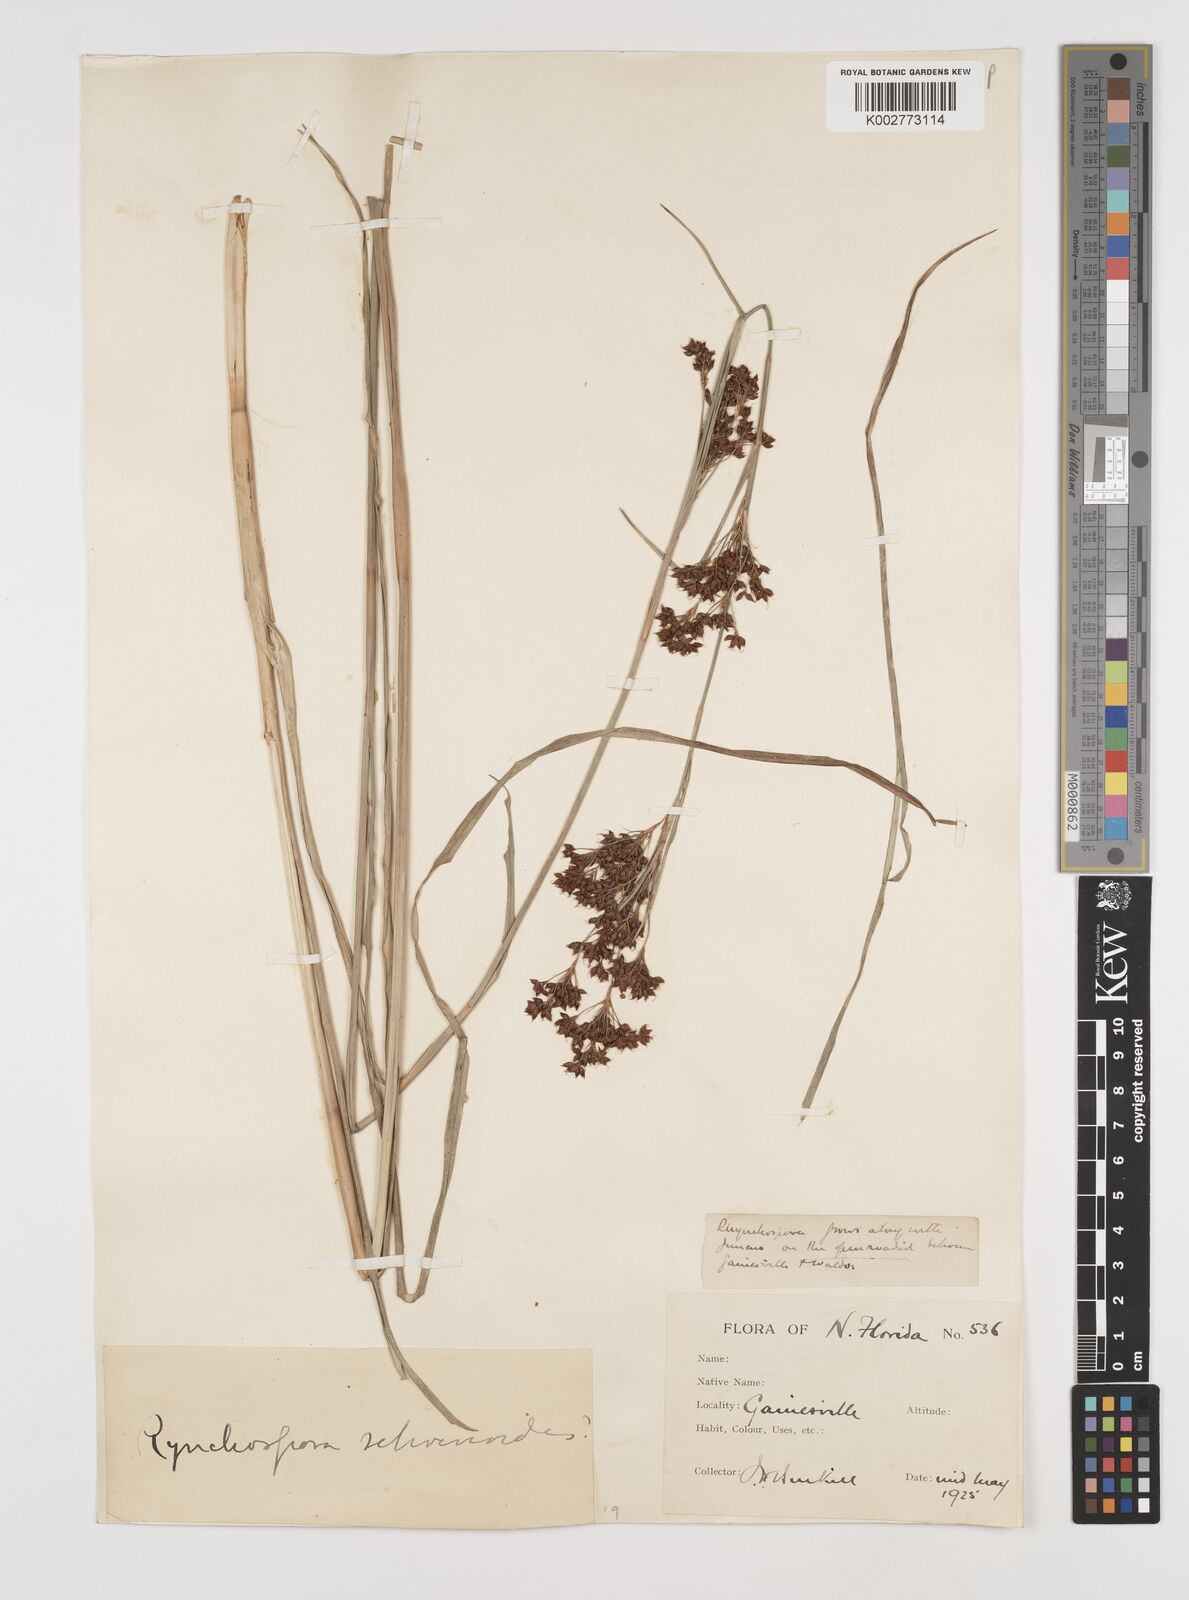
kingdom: Plantae
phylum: Tracheophyta
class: Liliopsida
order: Poales
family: Cyperaceae
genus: Rhynchospora
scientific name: Rhynchospora
